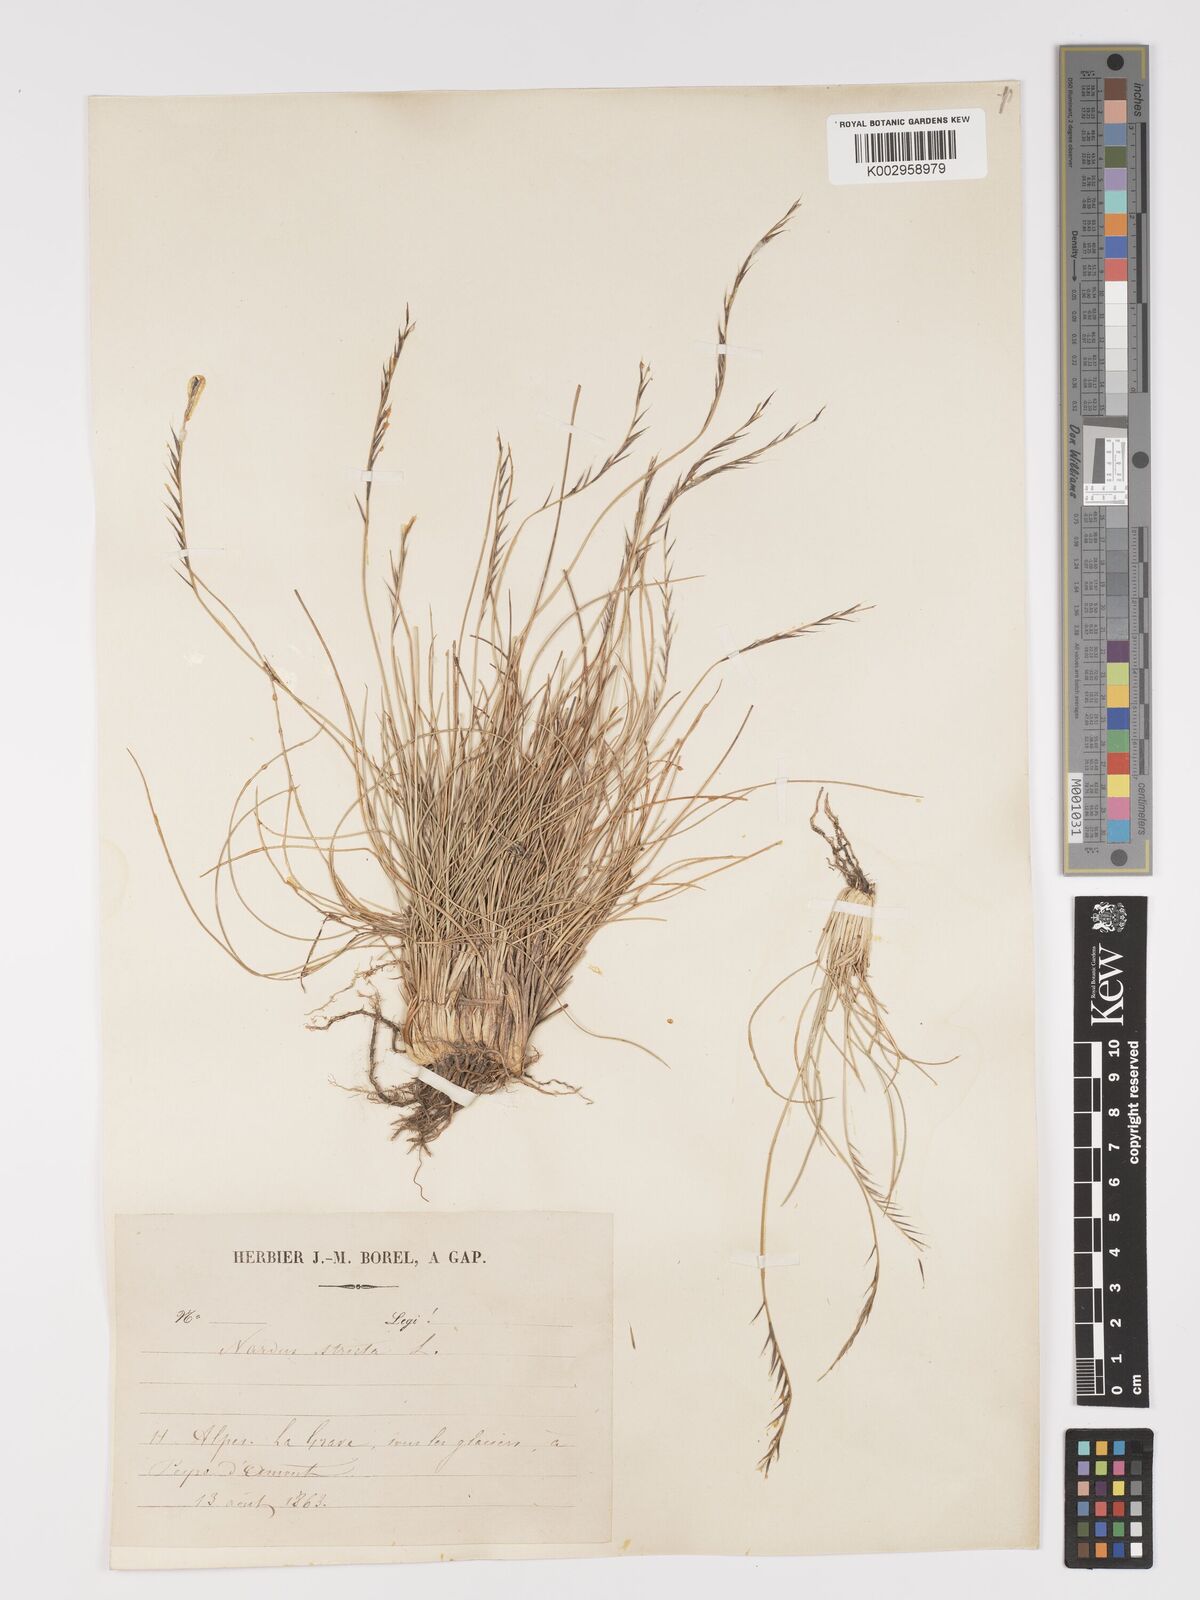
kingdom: Plantae
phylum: Tracheophyta
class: Liliopsida
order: Poales
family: Poaceae
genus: Nardus
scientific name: Nardus stricta
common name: Mat-grass
